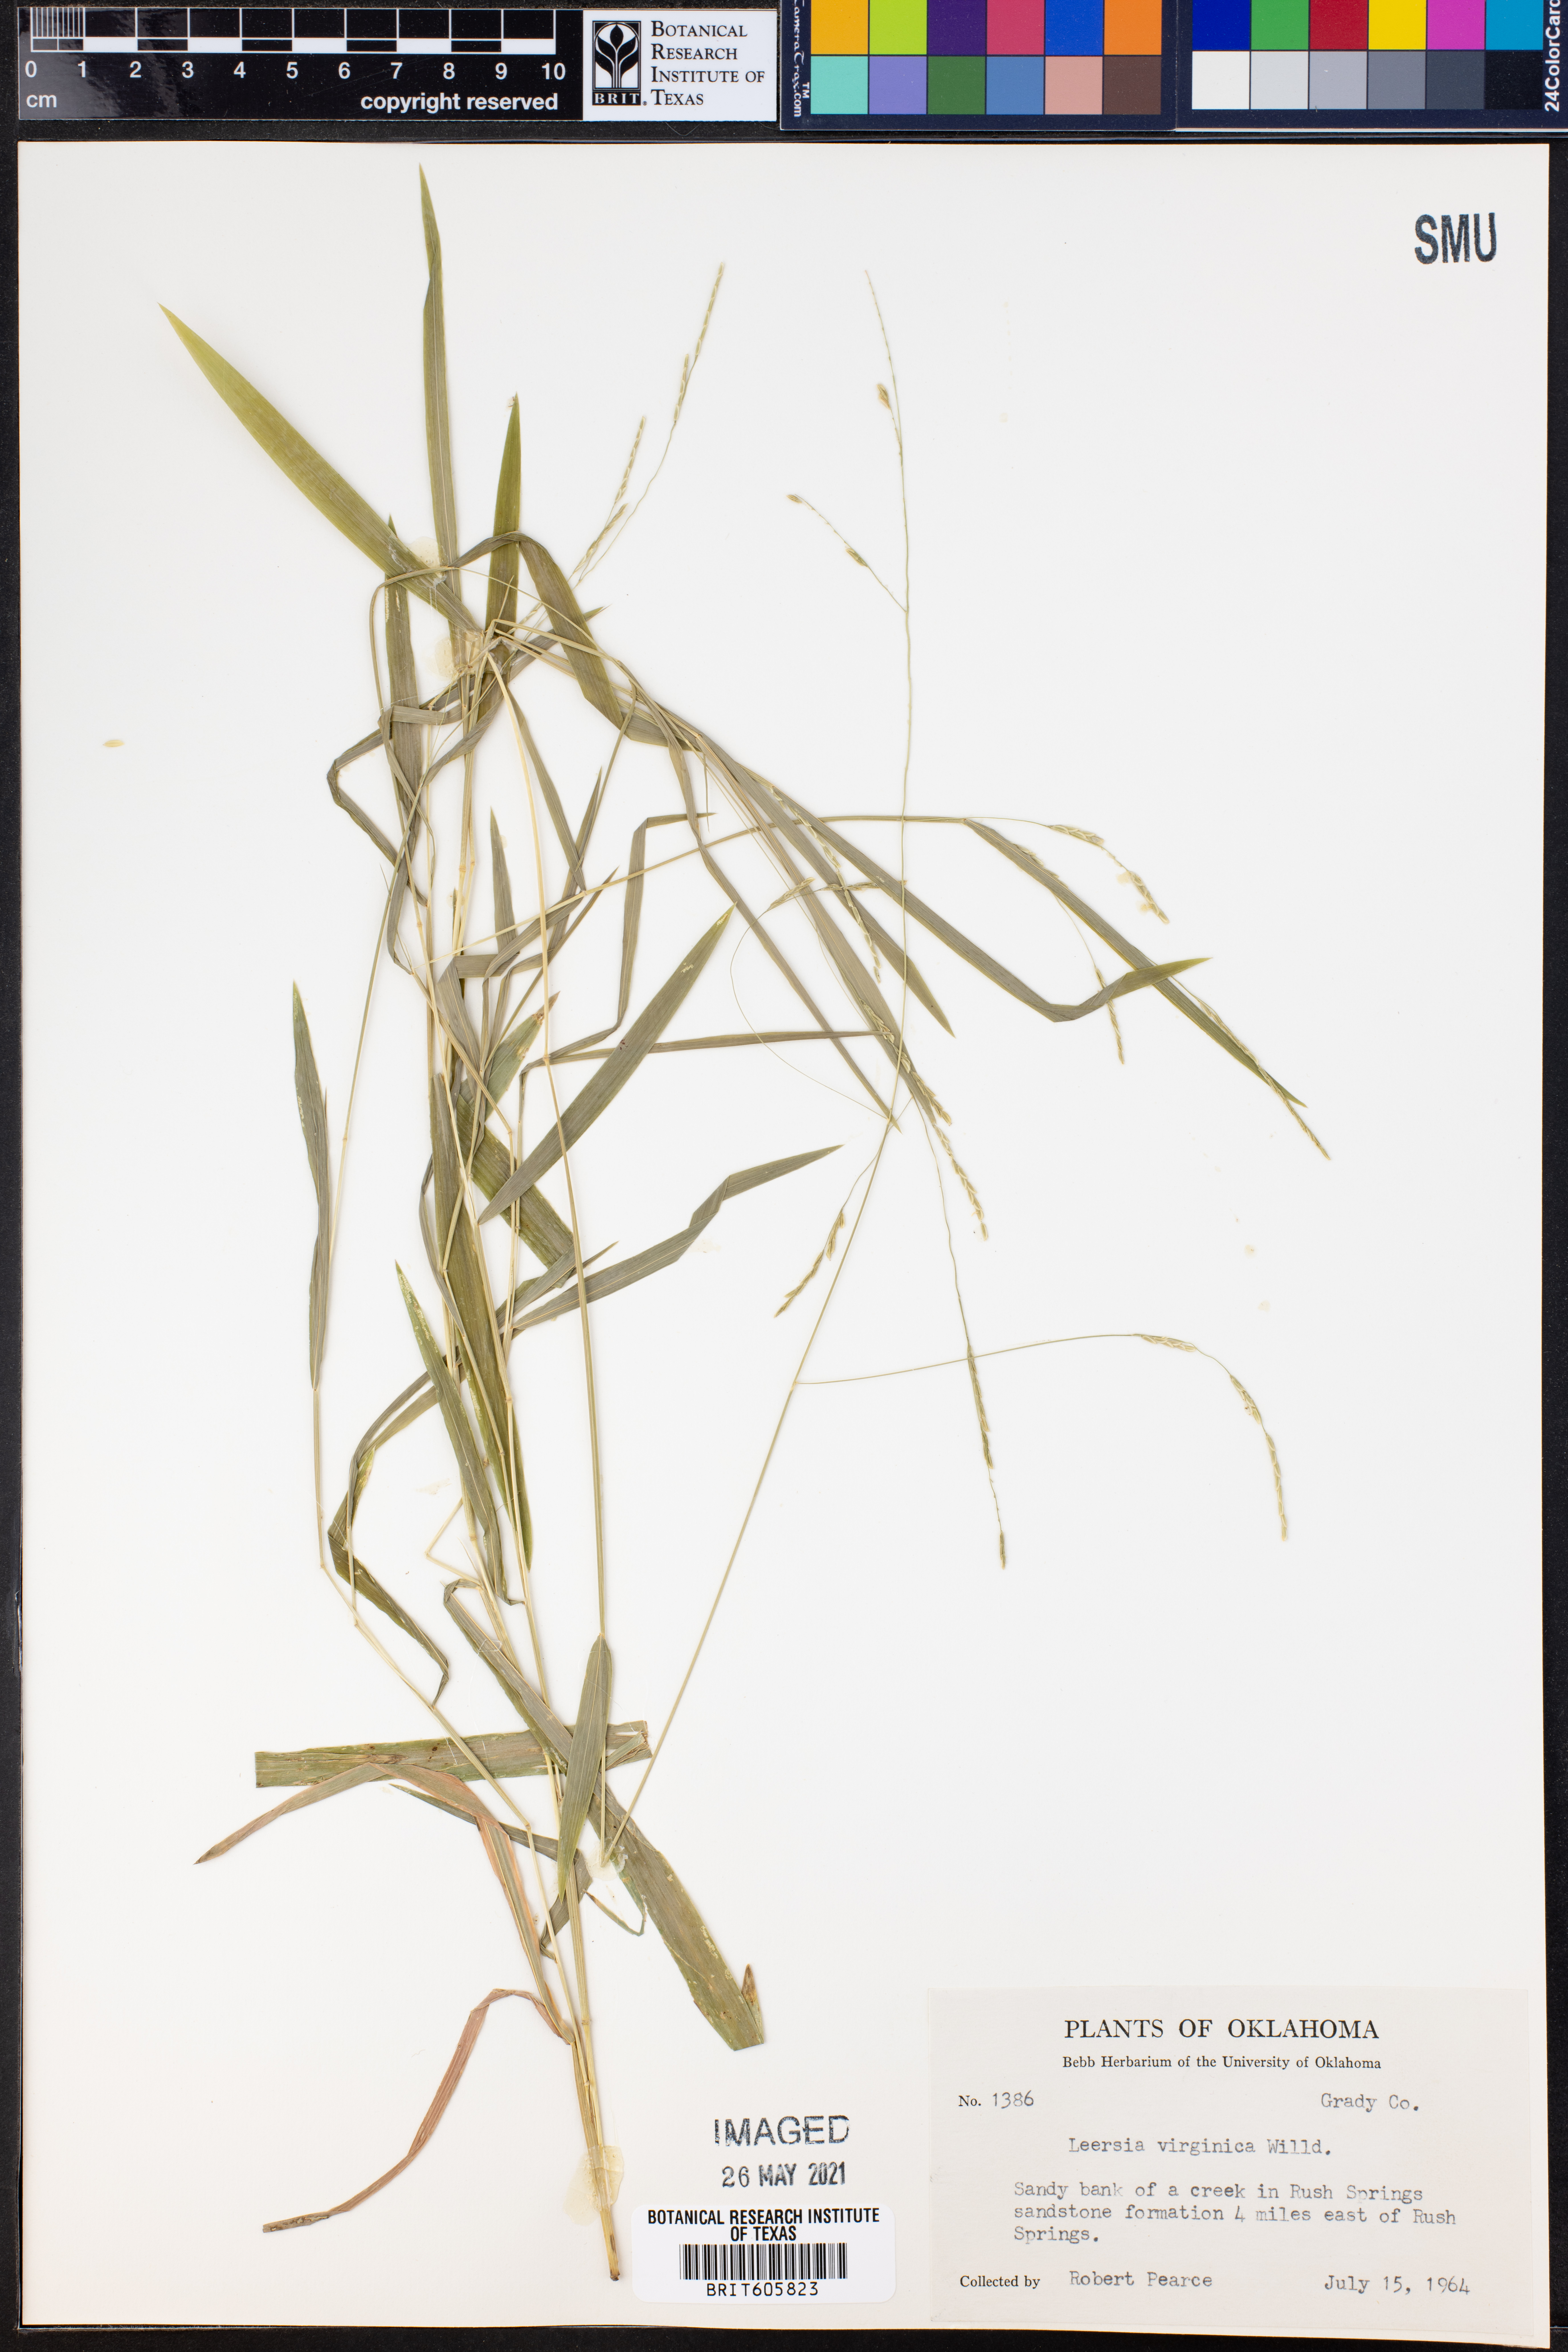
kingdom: Plantae
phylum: Tracheophyta
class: Liliopsida
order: Poales
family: Poaceae
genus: Leersia
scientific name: Leersia virginica
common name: White cutgrass
